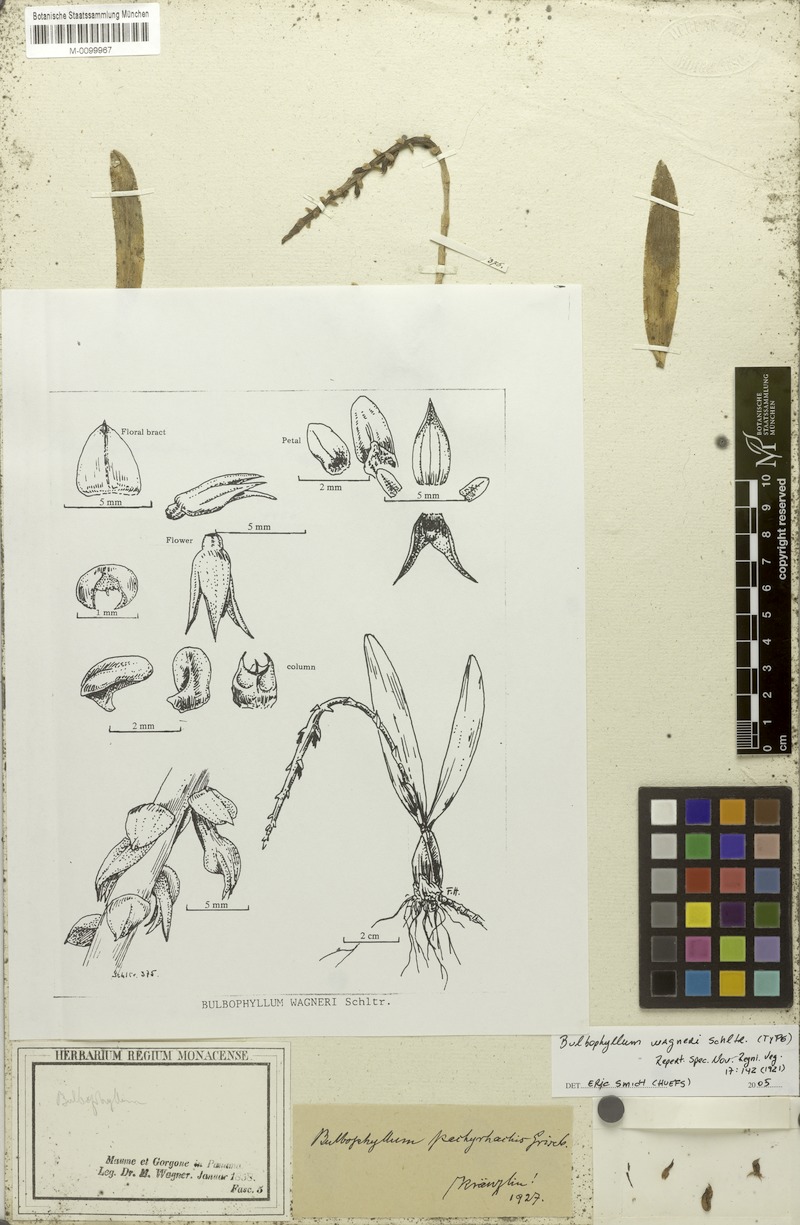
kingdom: Plantae
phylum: Tracheophyta
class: Liliopsida
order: Asparagales
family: Orchidaceae
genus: Bulbophyllum
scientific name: Bulbophyllum pinelianum
